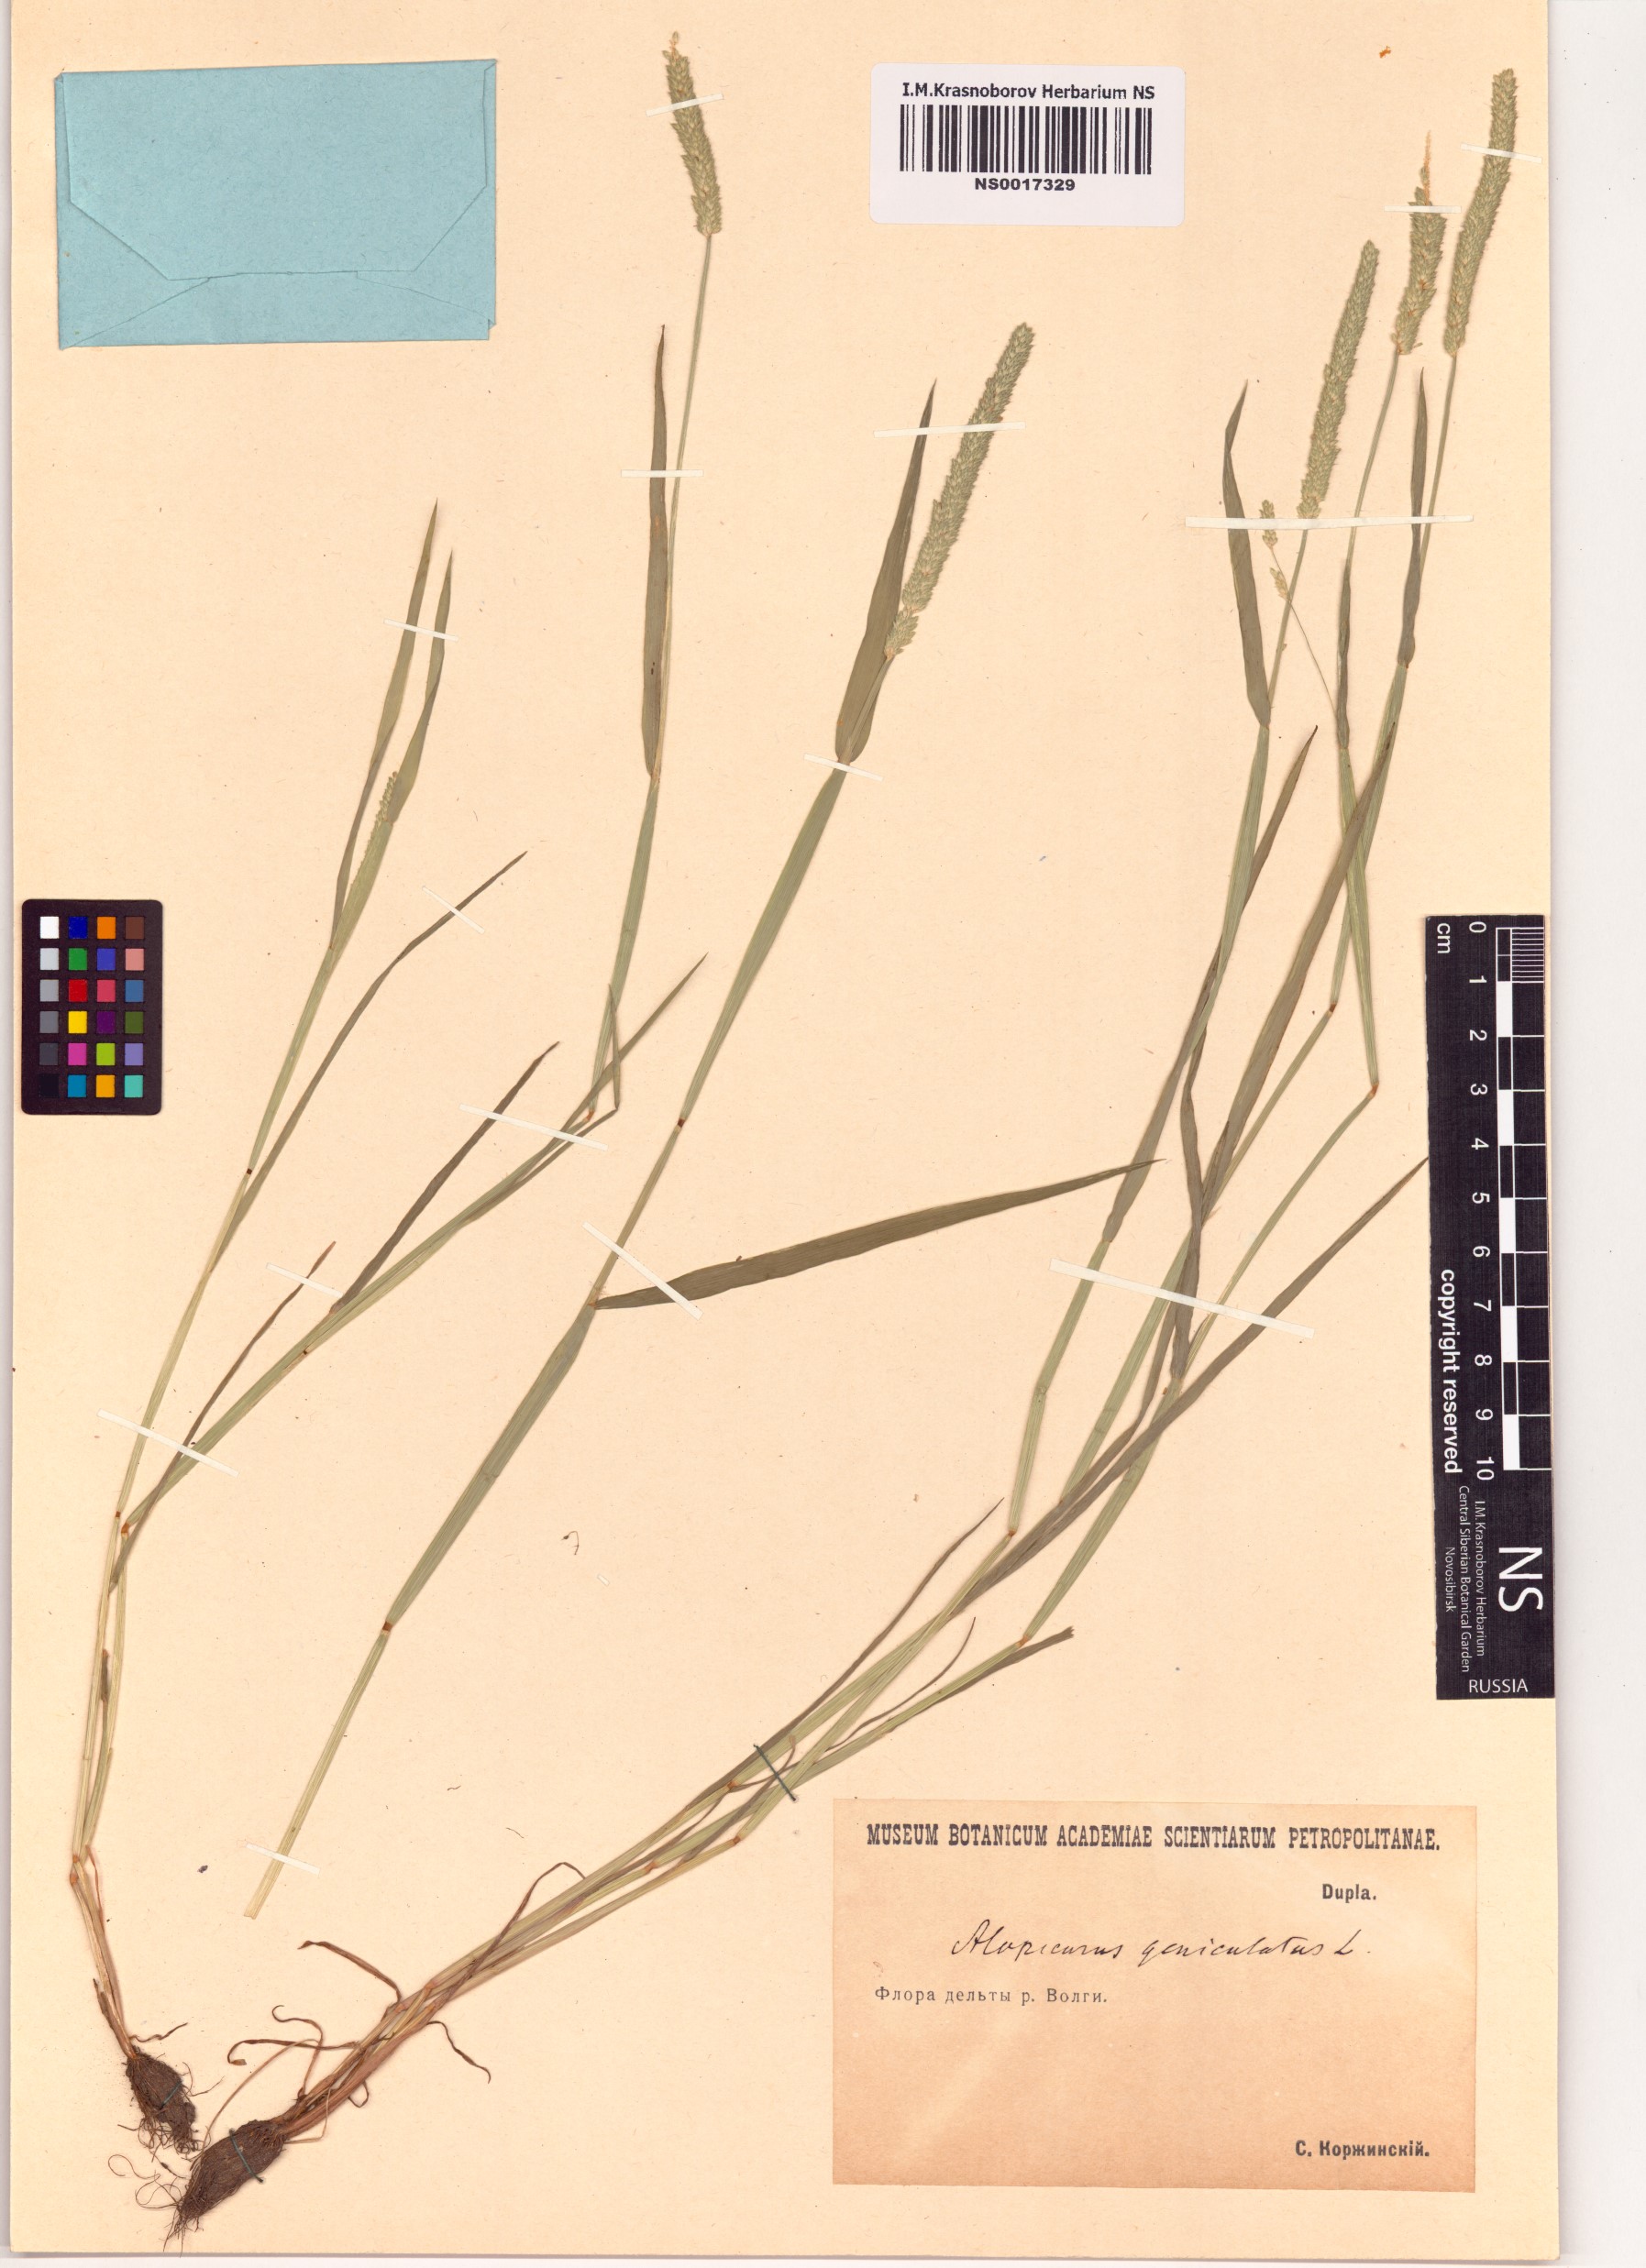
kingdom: Plantae
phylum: Tracheophyta
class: Liliopsida
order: Poales
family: Poaceae
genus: Alopecurus
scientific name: Alopecurus geniculatus
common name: Water foxtail
